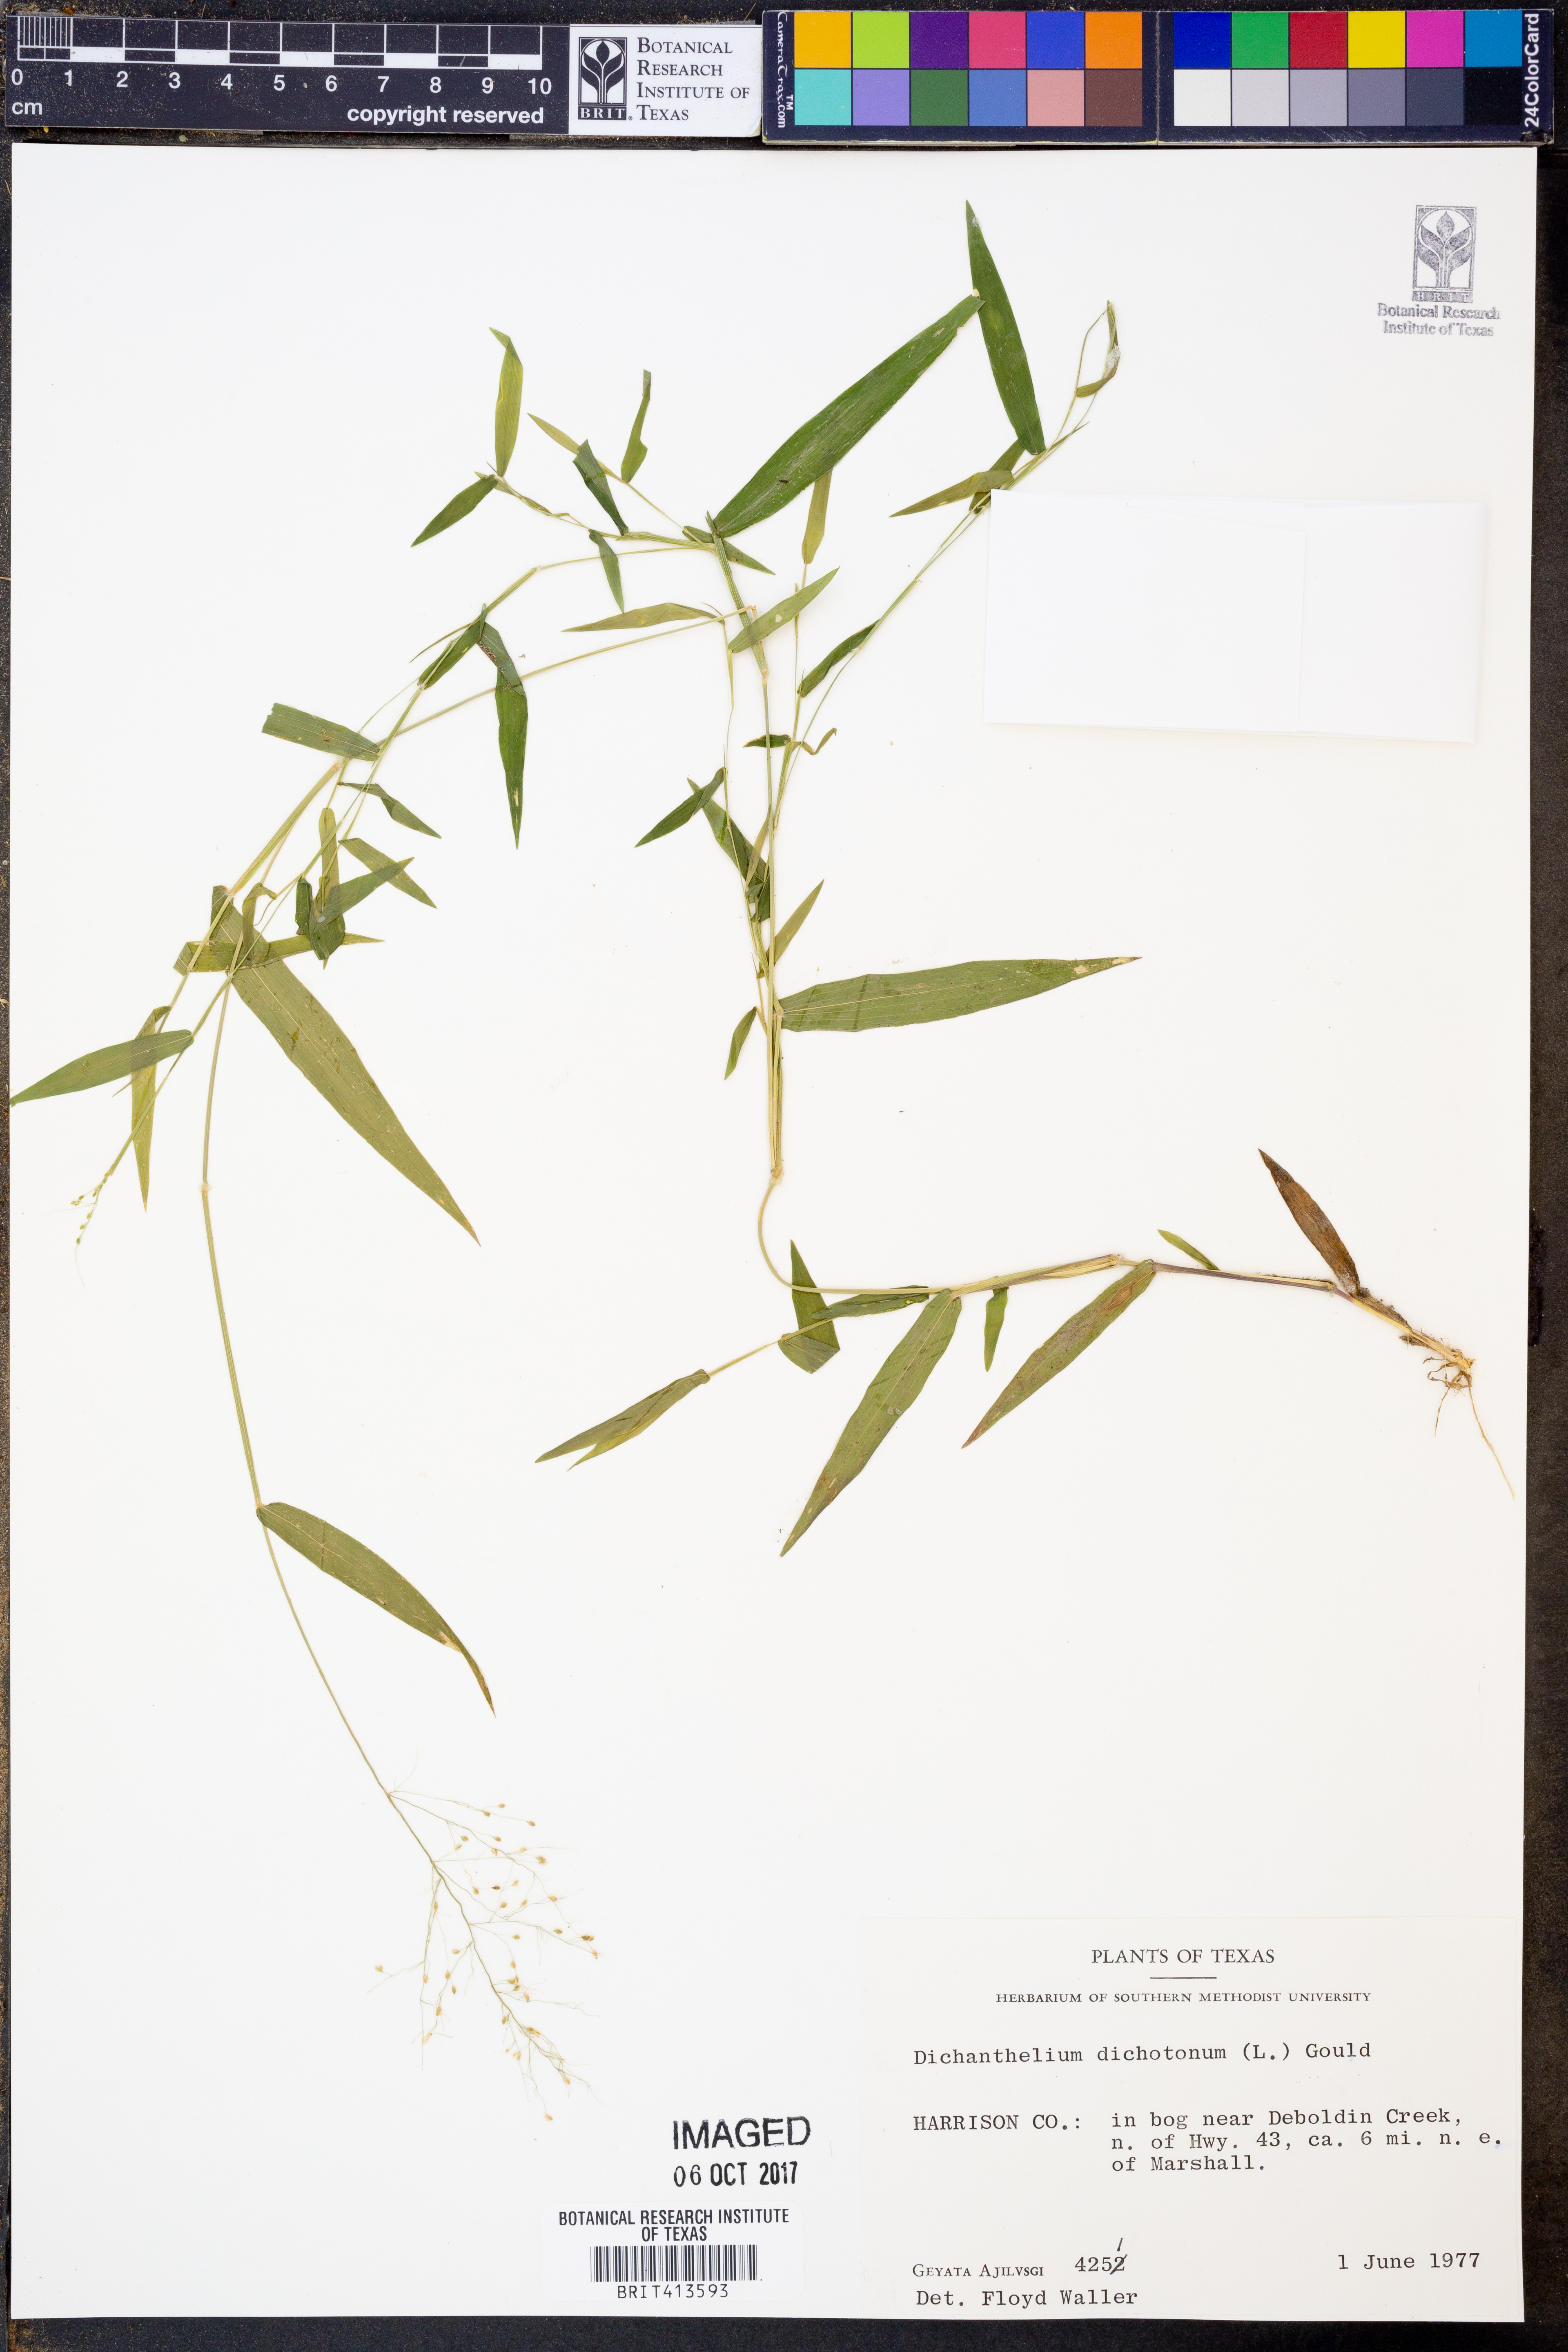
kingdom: Plantae
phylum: Tracheophyta
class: Liliopsida
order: Poales
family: Poaceae
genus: Dichanthelium
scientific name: Dichanthelium dichotomum
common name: Cypress panicgrass
